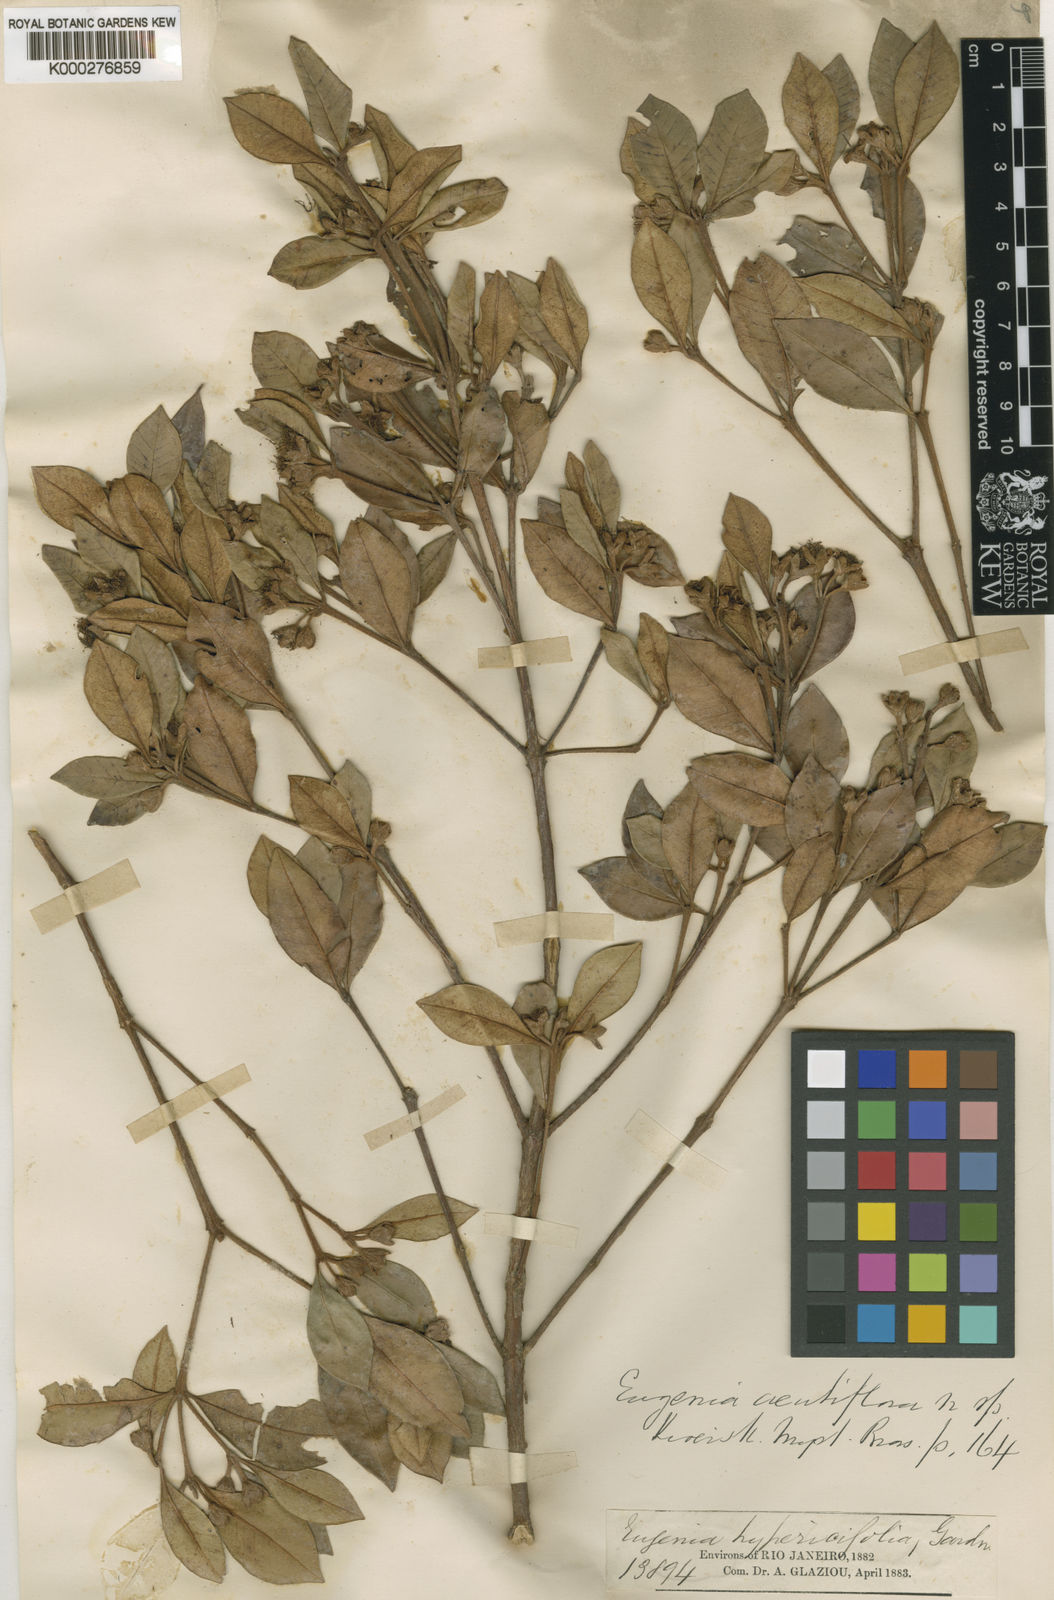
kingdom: Plantae
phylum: Tracheophyta
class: Magnoliopsida
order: Myrtales
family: Myrtaceae
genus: Myrceugenia
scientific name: Myrceugenia acutiflora
